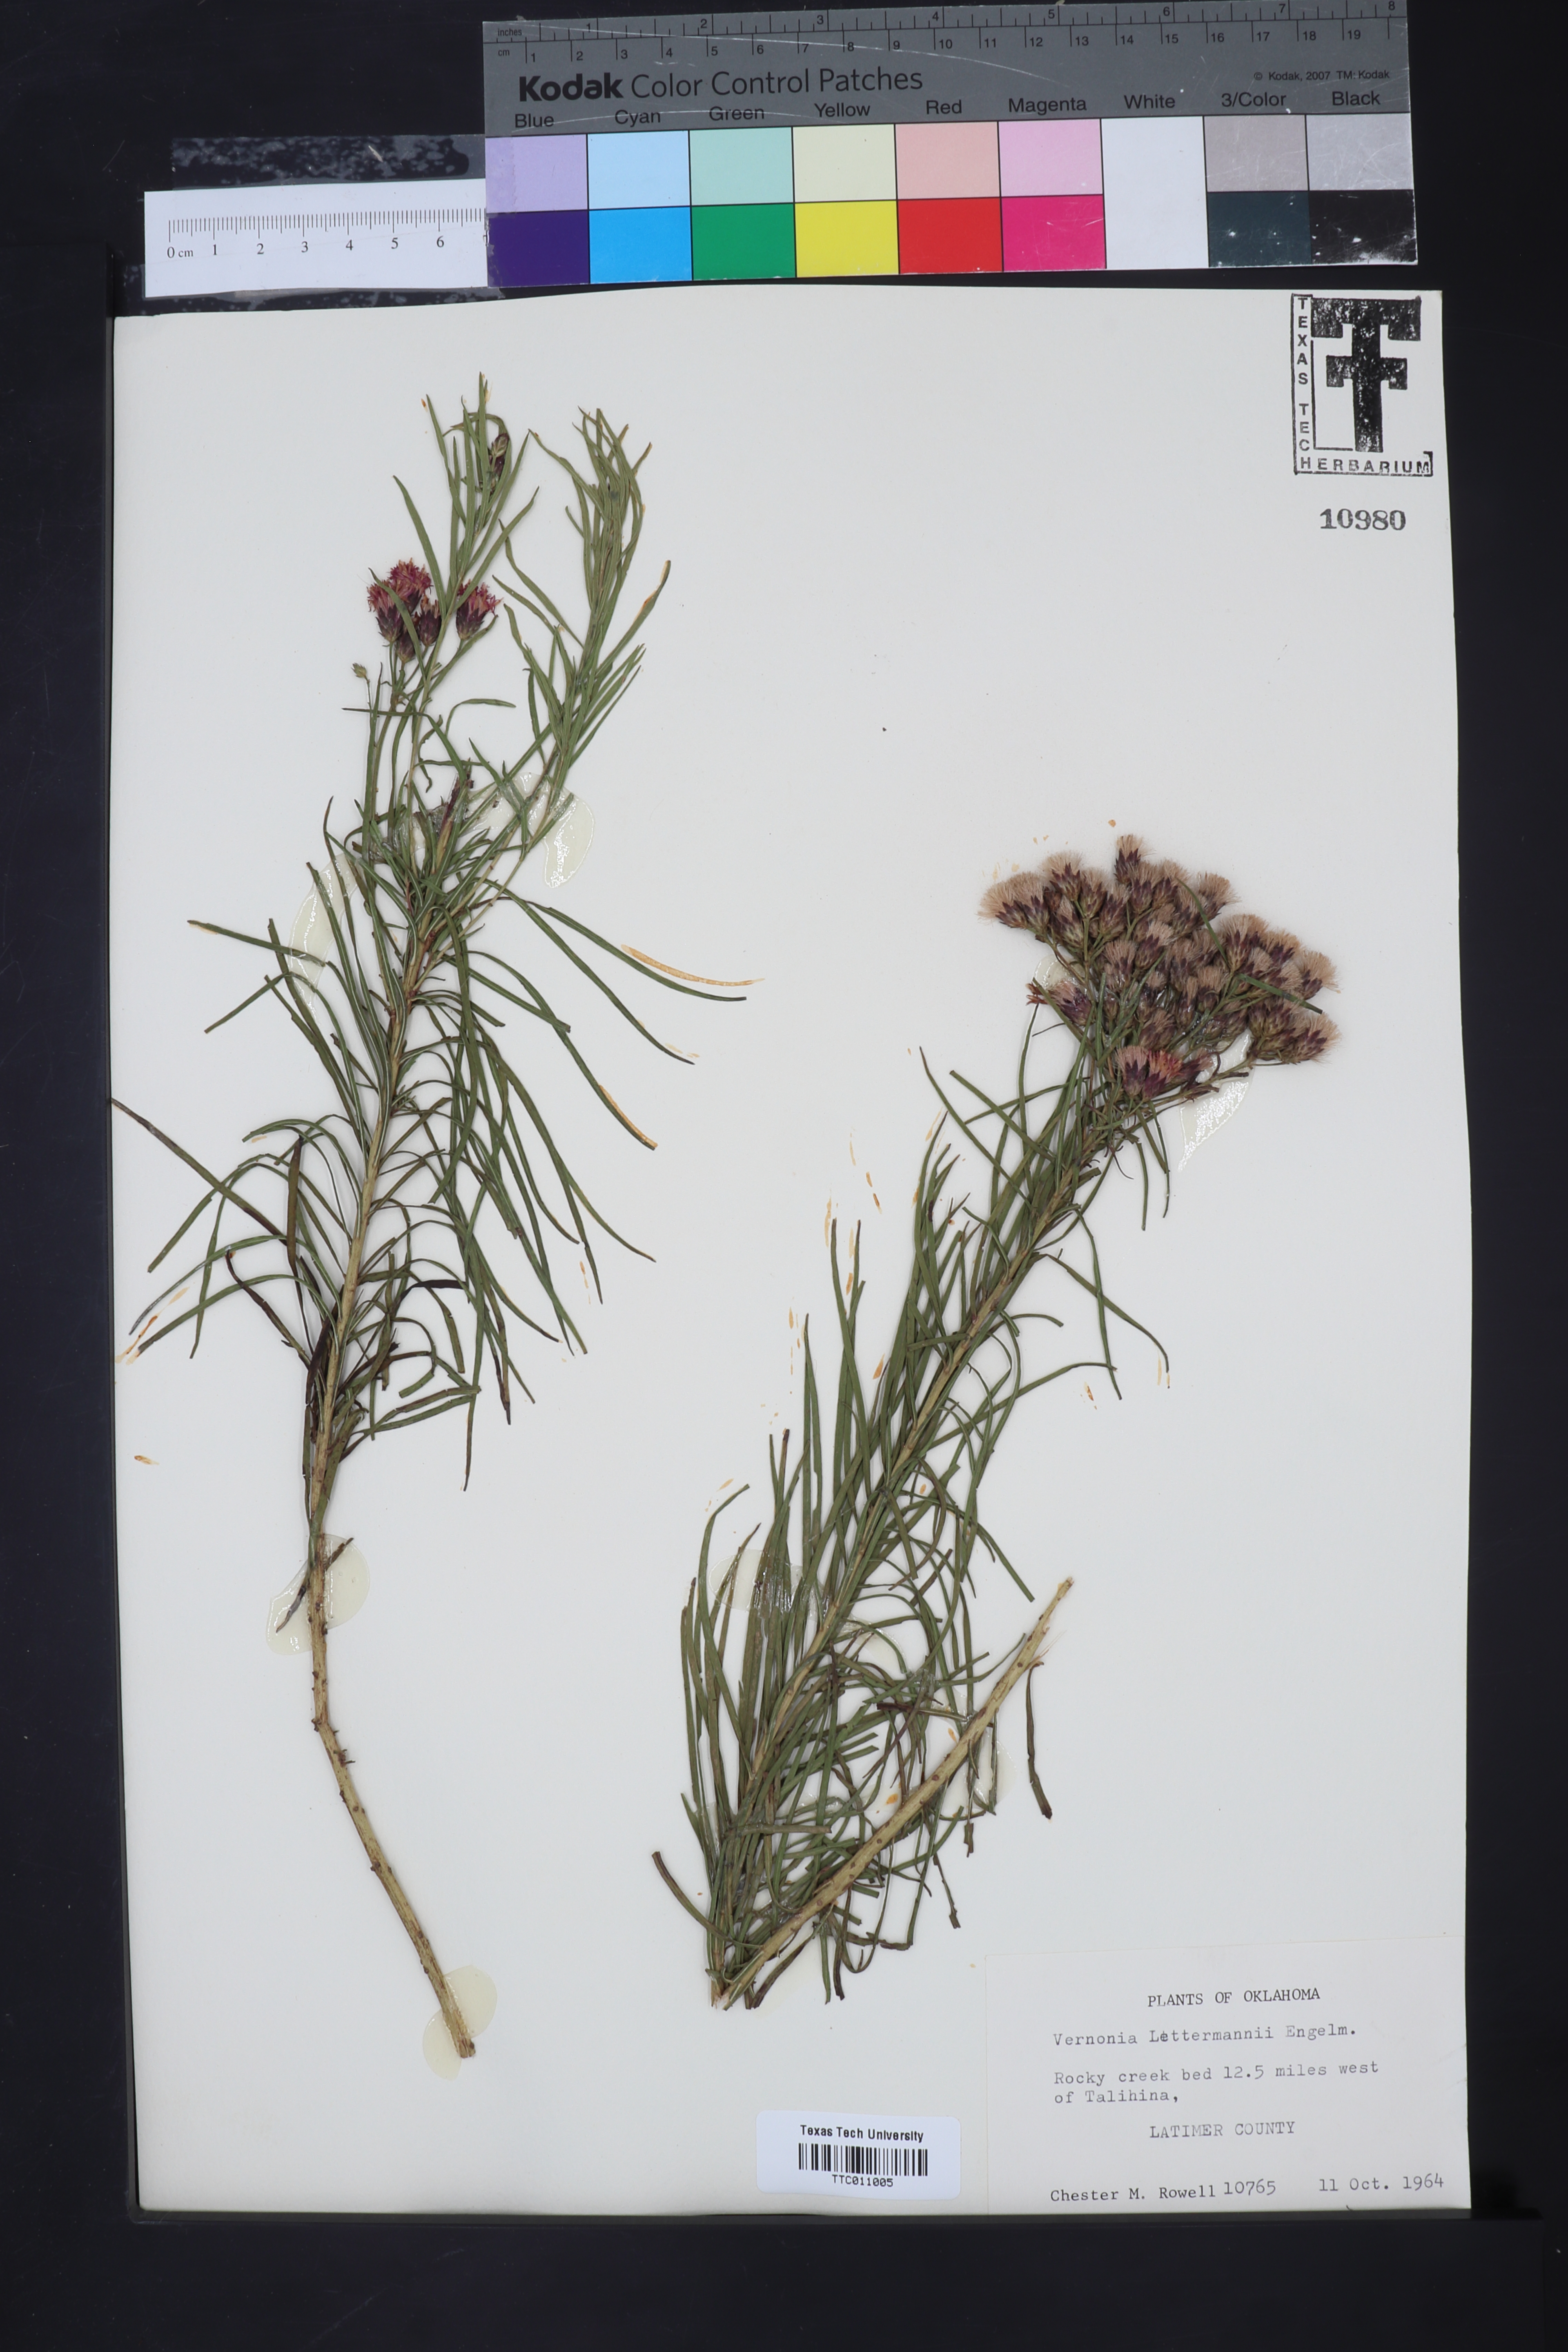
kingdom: Plantae
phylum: Tracheophyta
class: Magnoliopsida
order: Asterales
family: Asteraceae
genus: Vernonia
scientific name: Vernonia missurica
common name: Missouri ironweed
